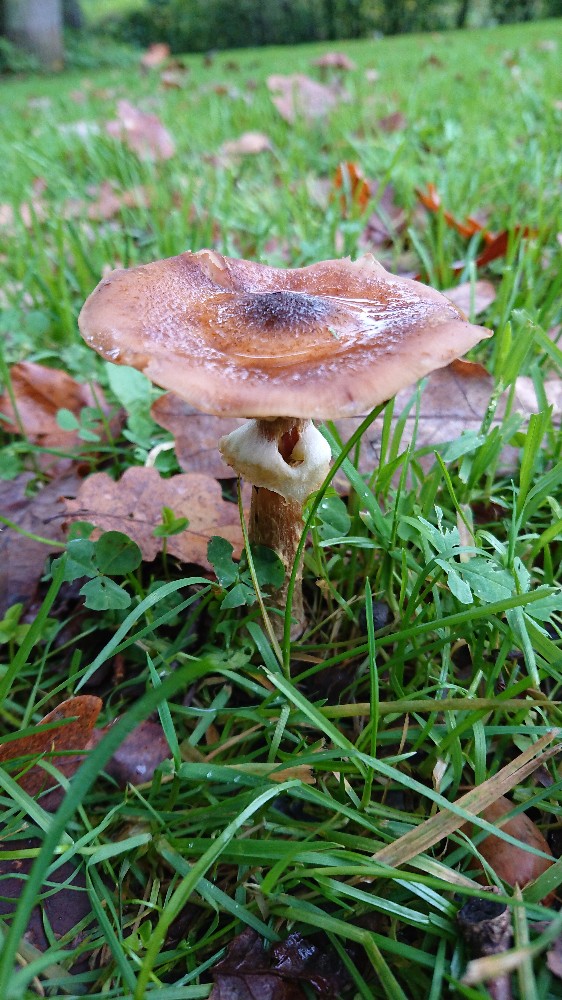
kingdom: Fungi
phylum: Basidiomycota
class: Agaricomycetes
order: Agaricales
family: Physalacriaceae
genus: Armillaria
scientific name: Armillaria
